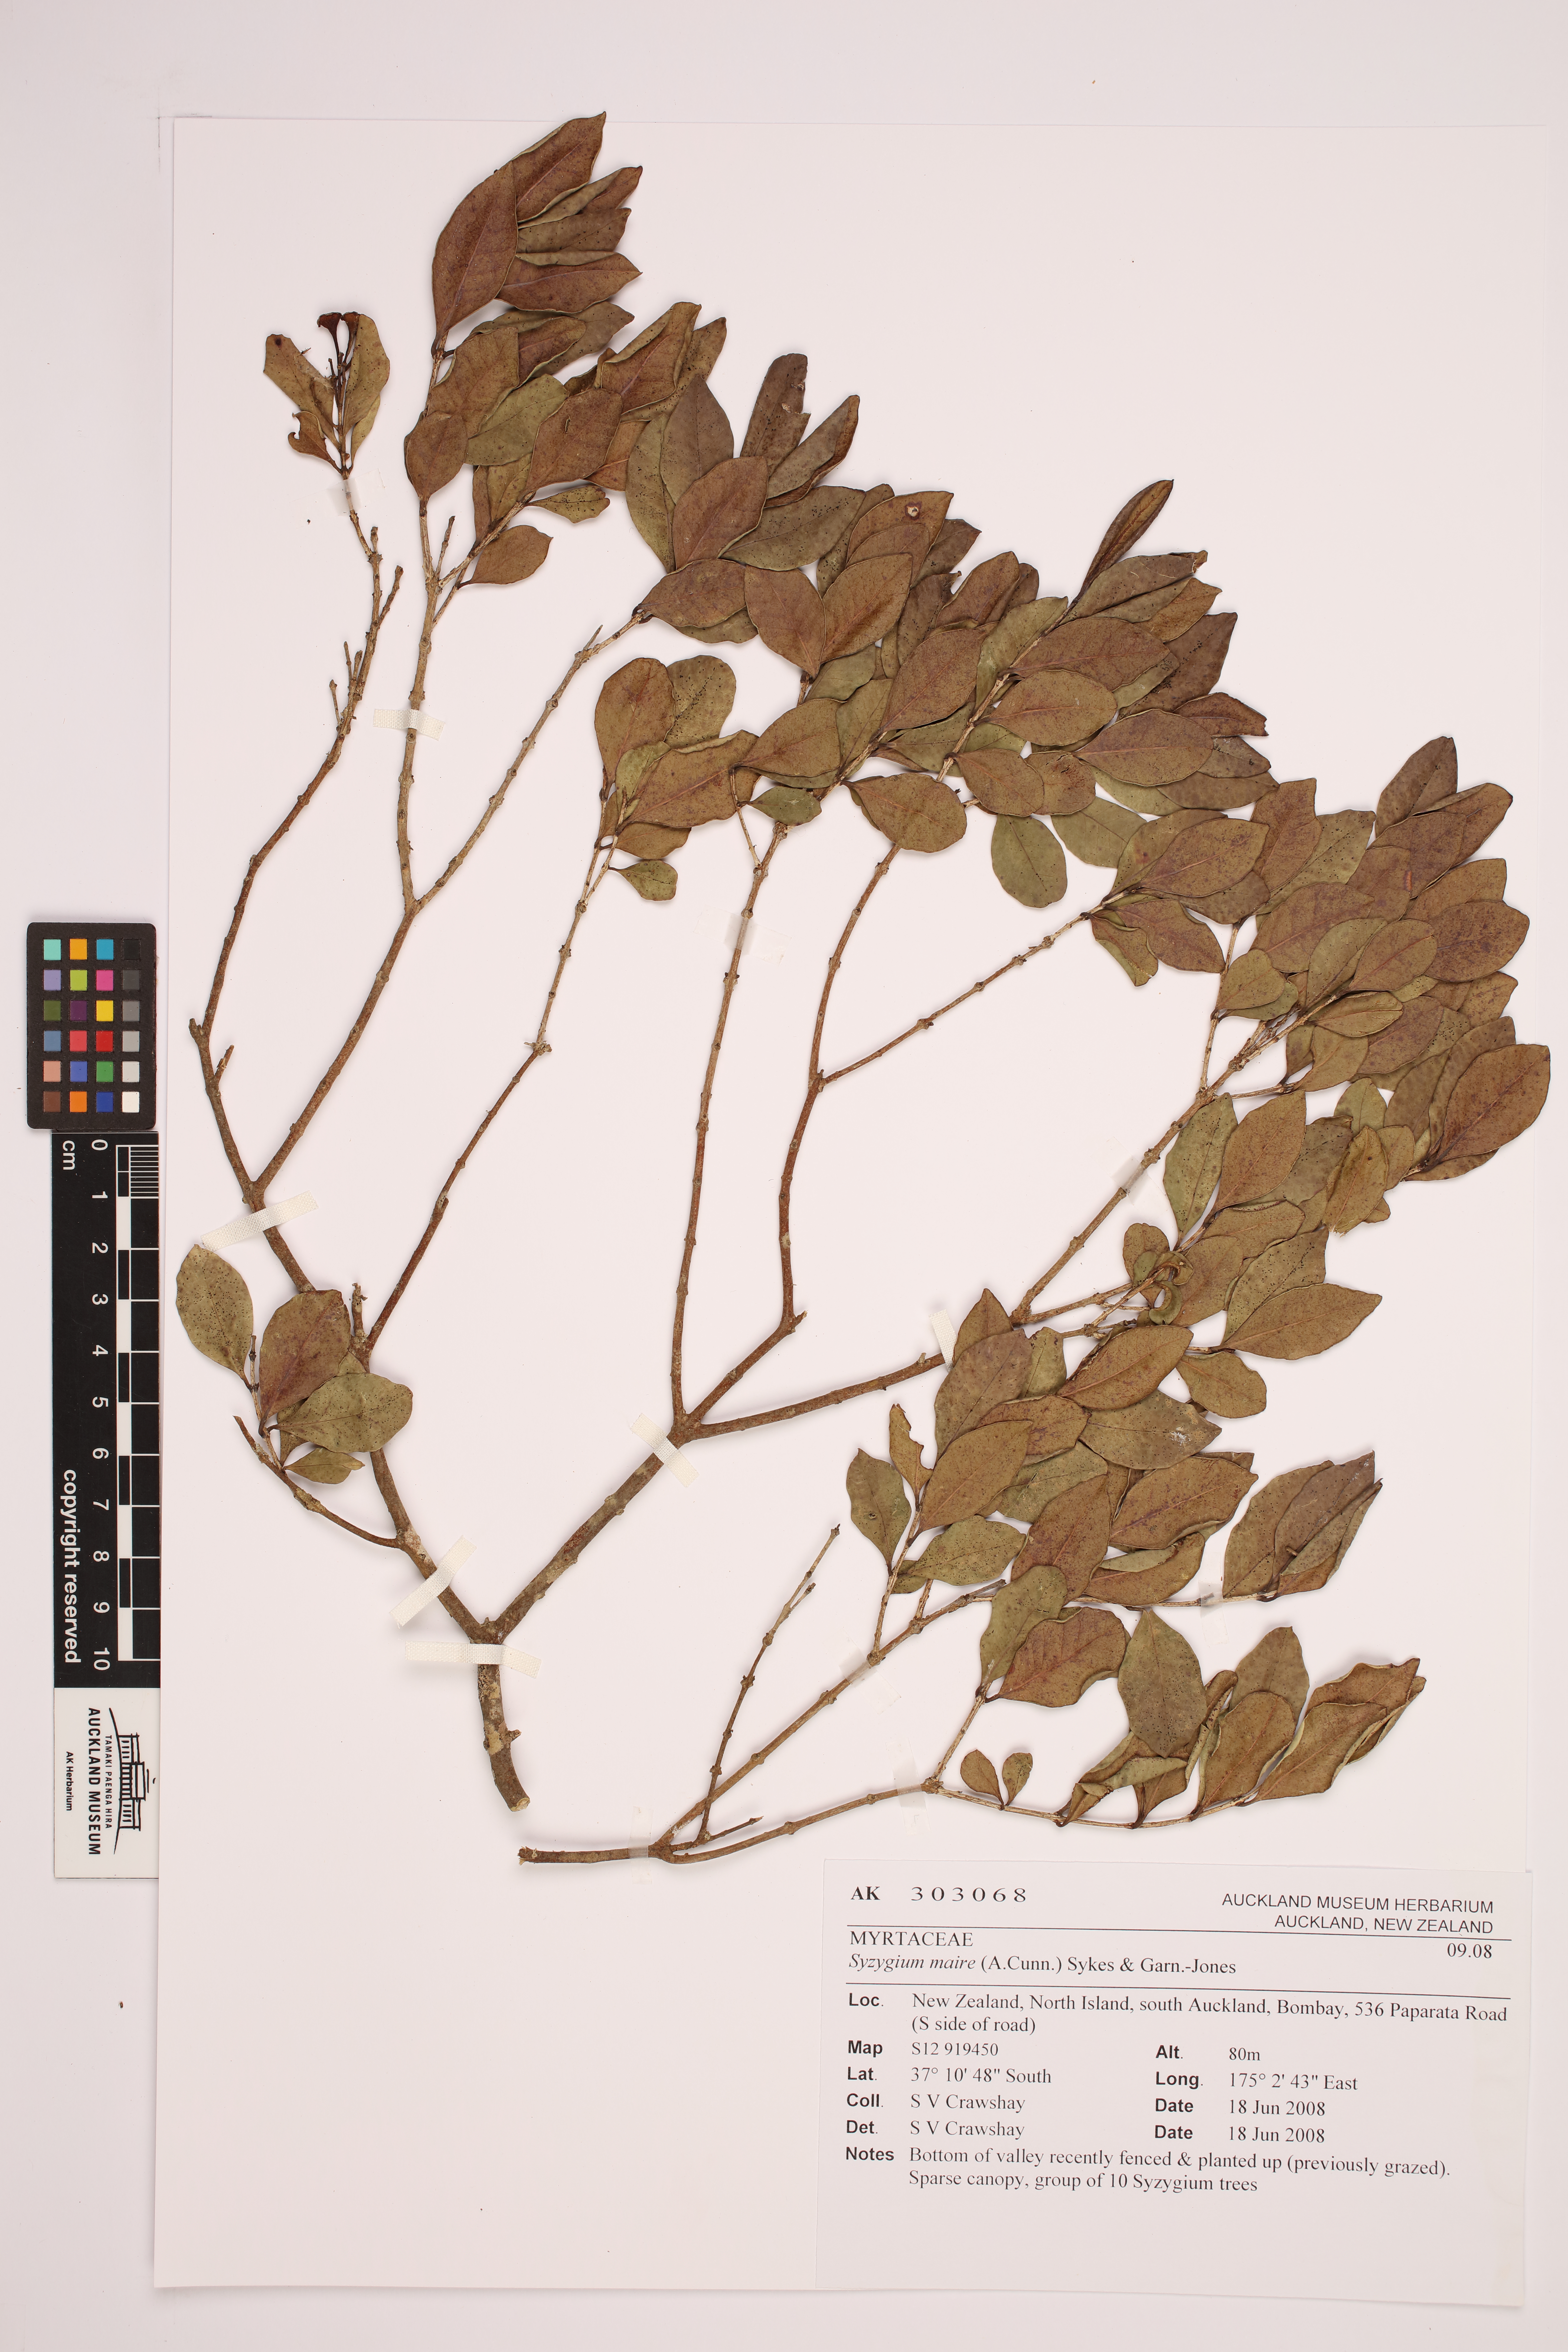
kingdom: Plantae
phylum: Tracheophyta
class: Magnoliopsida
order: Myrtales
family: Myrtaceae
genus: Syzygium
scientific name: Syzygium maire
